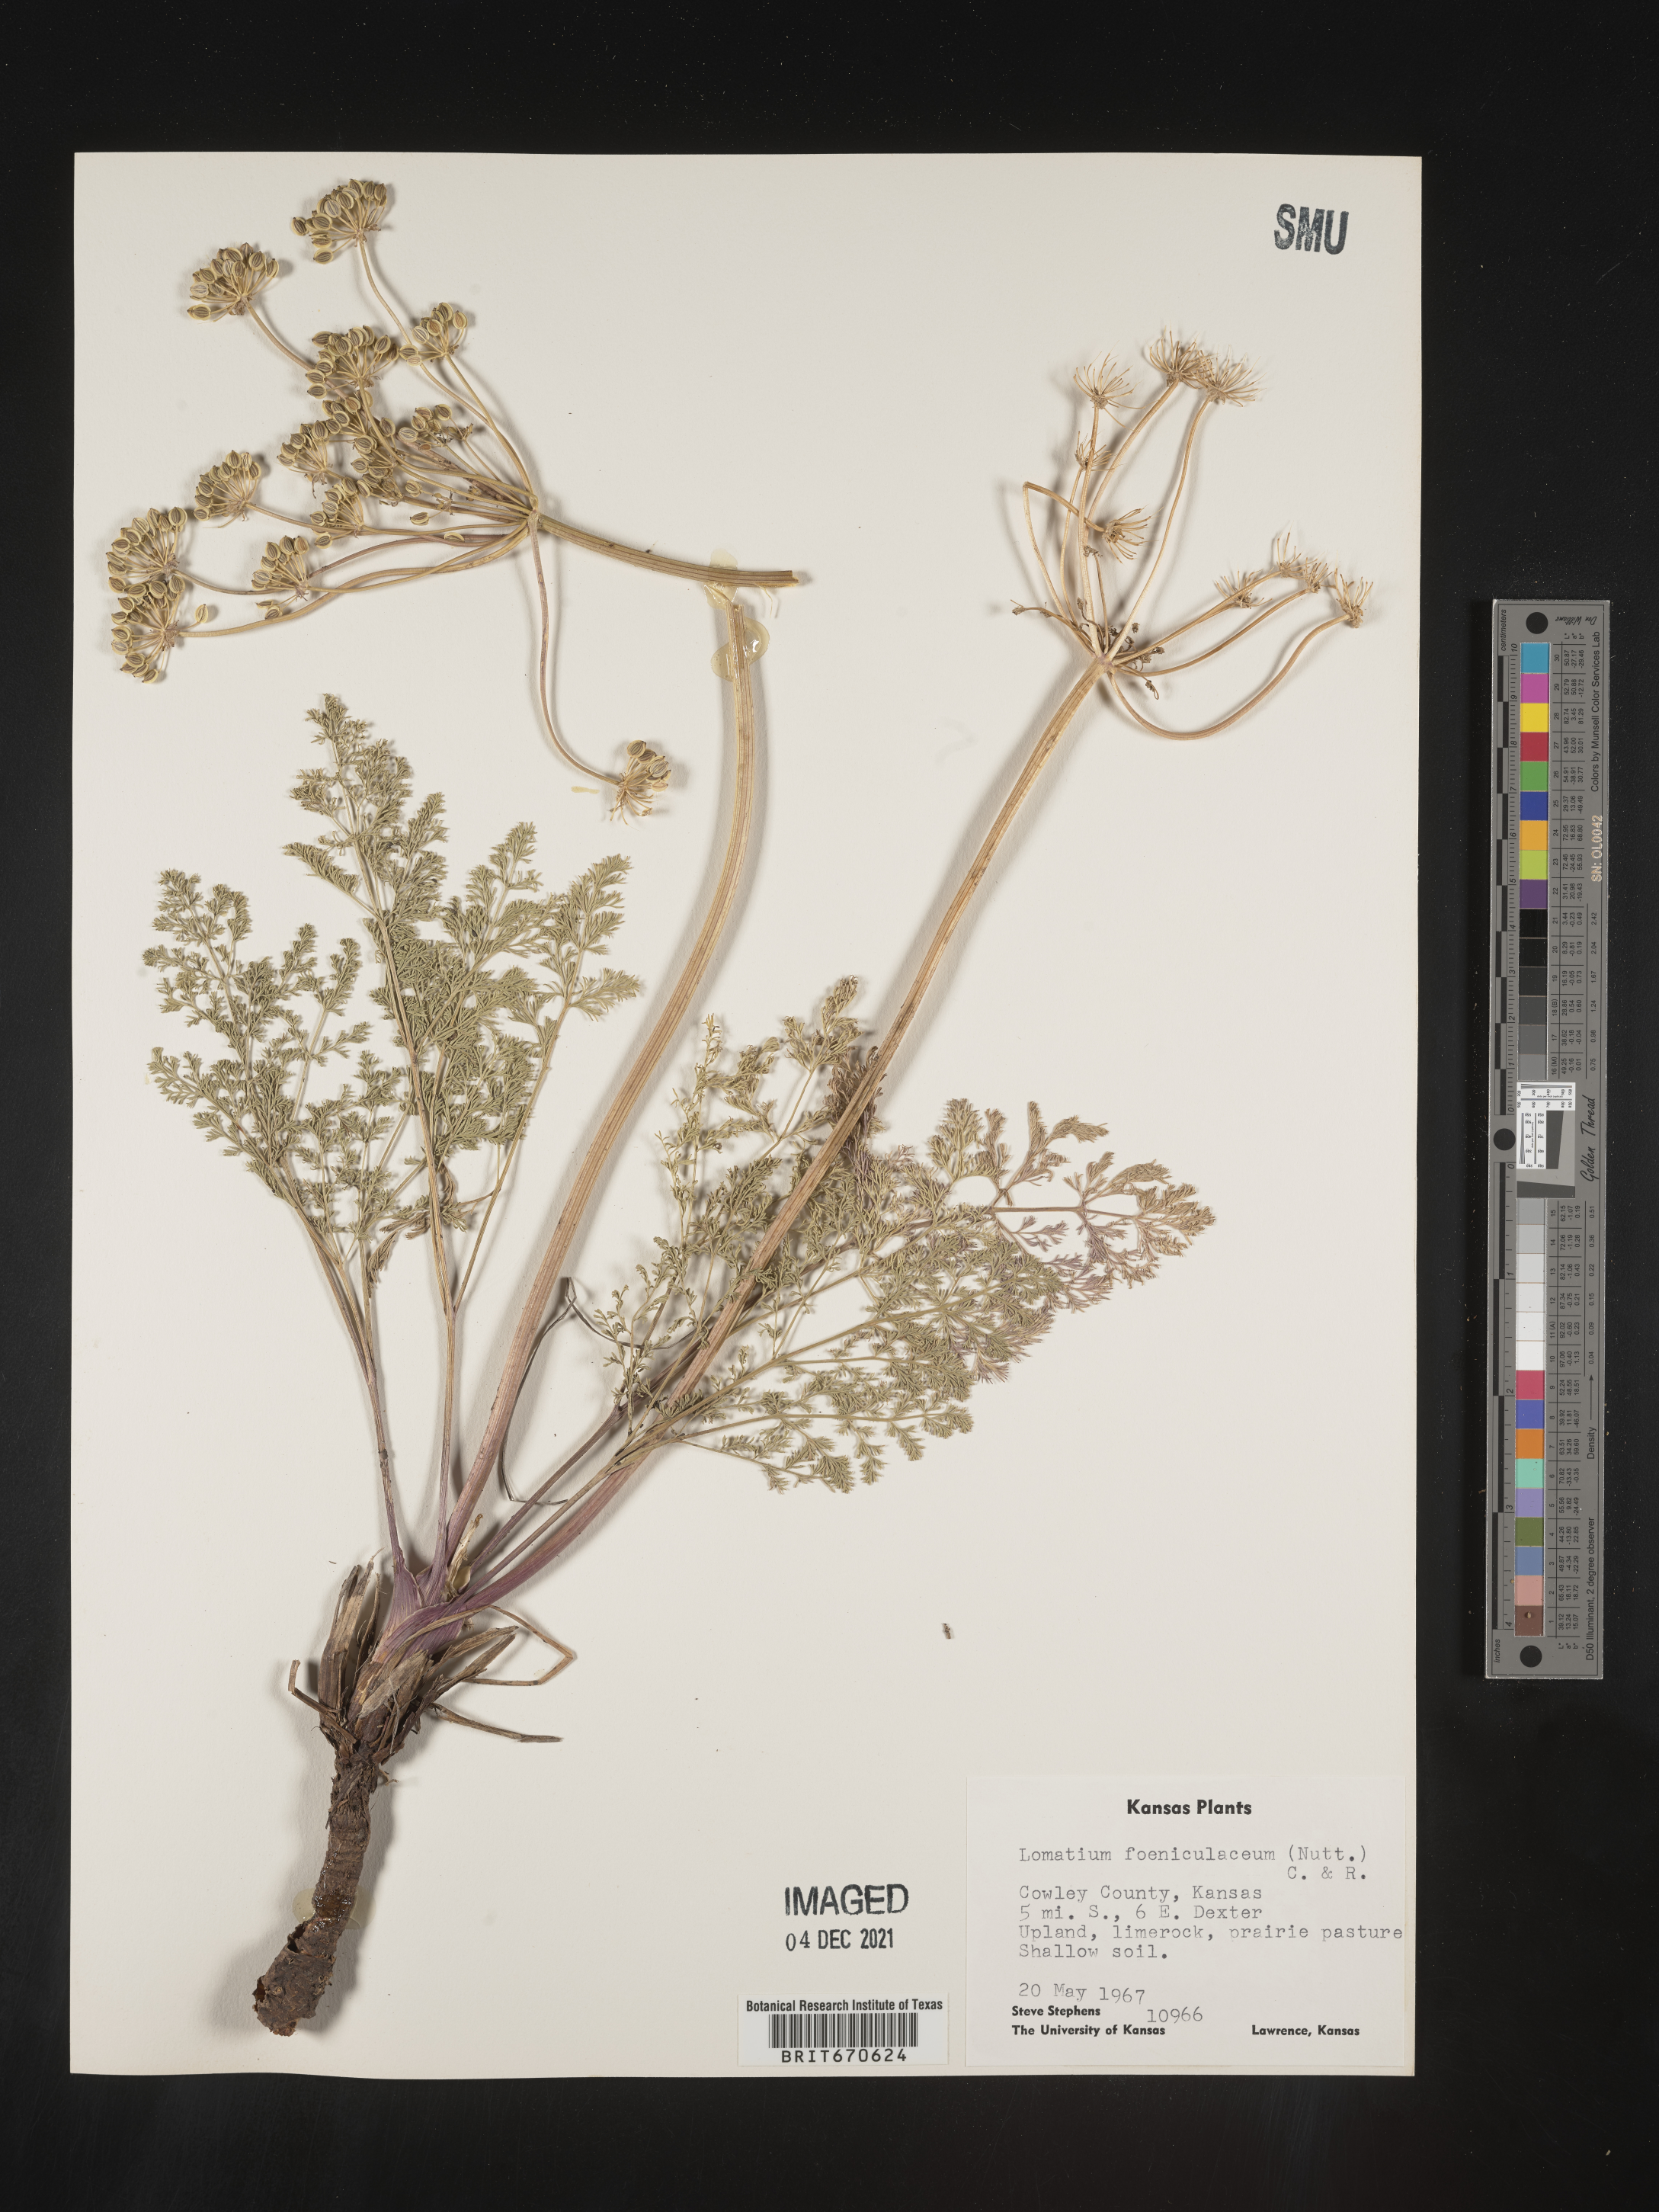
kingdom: Plantae
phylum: Tracheophyta
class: Magnoliopsida
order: Apiales
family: Apiaceae
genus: Lomatium
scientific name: Lomatium foeniculaceum
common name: Desert-parsley
